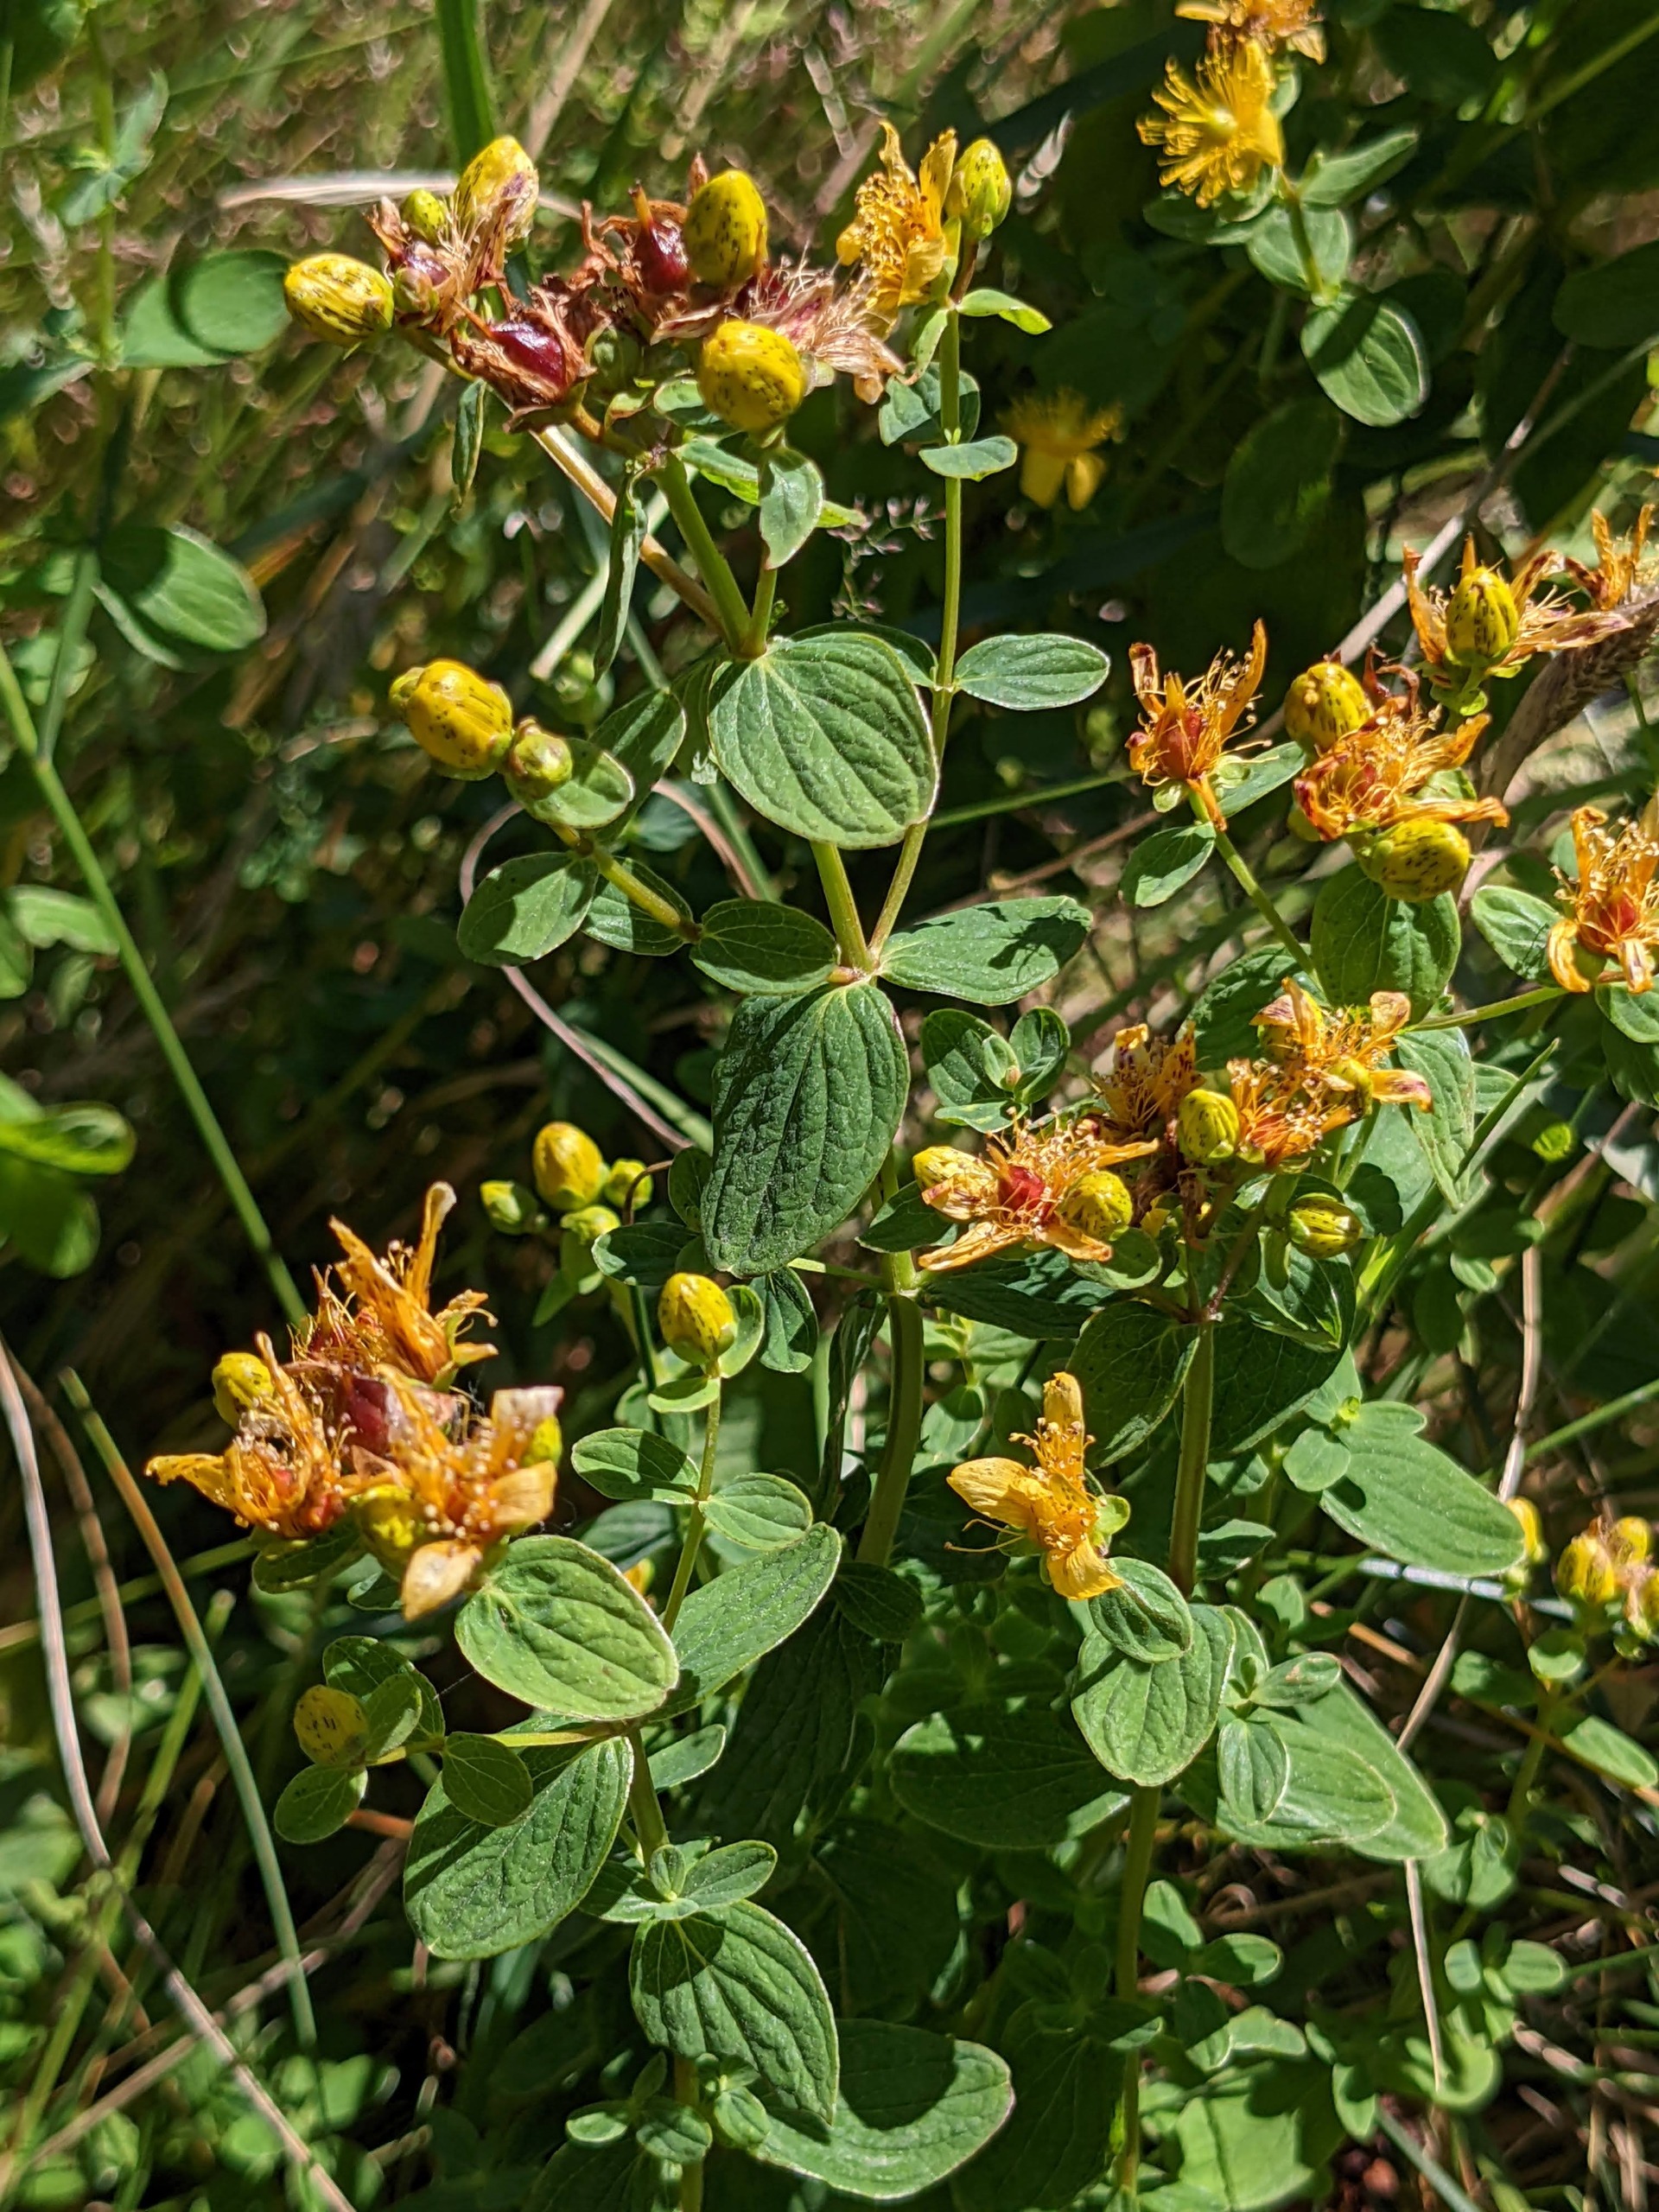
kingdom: Plantae
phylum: Tracheophyta
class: Magnoliopsida
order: Malpighiales
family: Hypericaceae
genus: Hypericum
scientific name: Hypericum maculatum
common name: Kantet perikon
